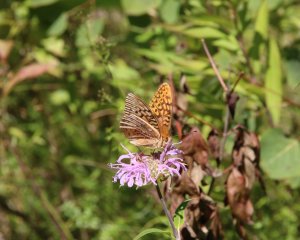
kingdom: Animalia
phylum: Arthropoda
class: Insecta
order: Lepidoptera
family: Nymphalidae
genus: Speyeria
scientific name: Speyeria aphrodite
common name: Aphrodite Fritillary
